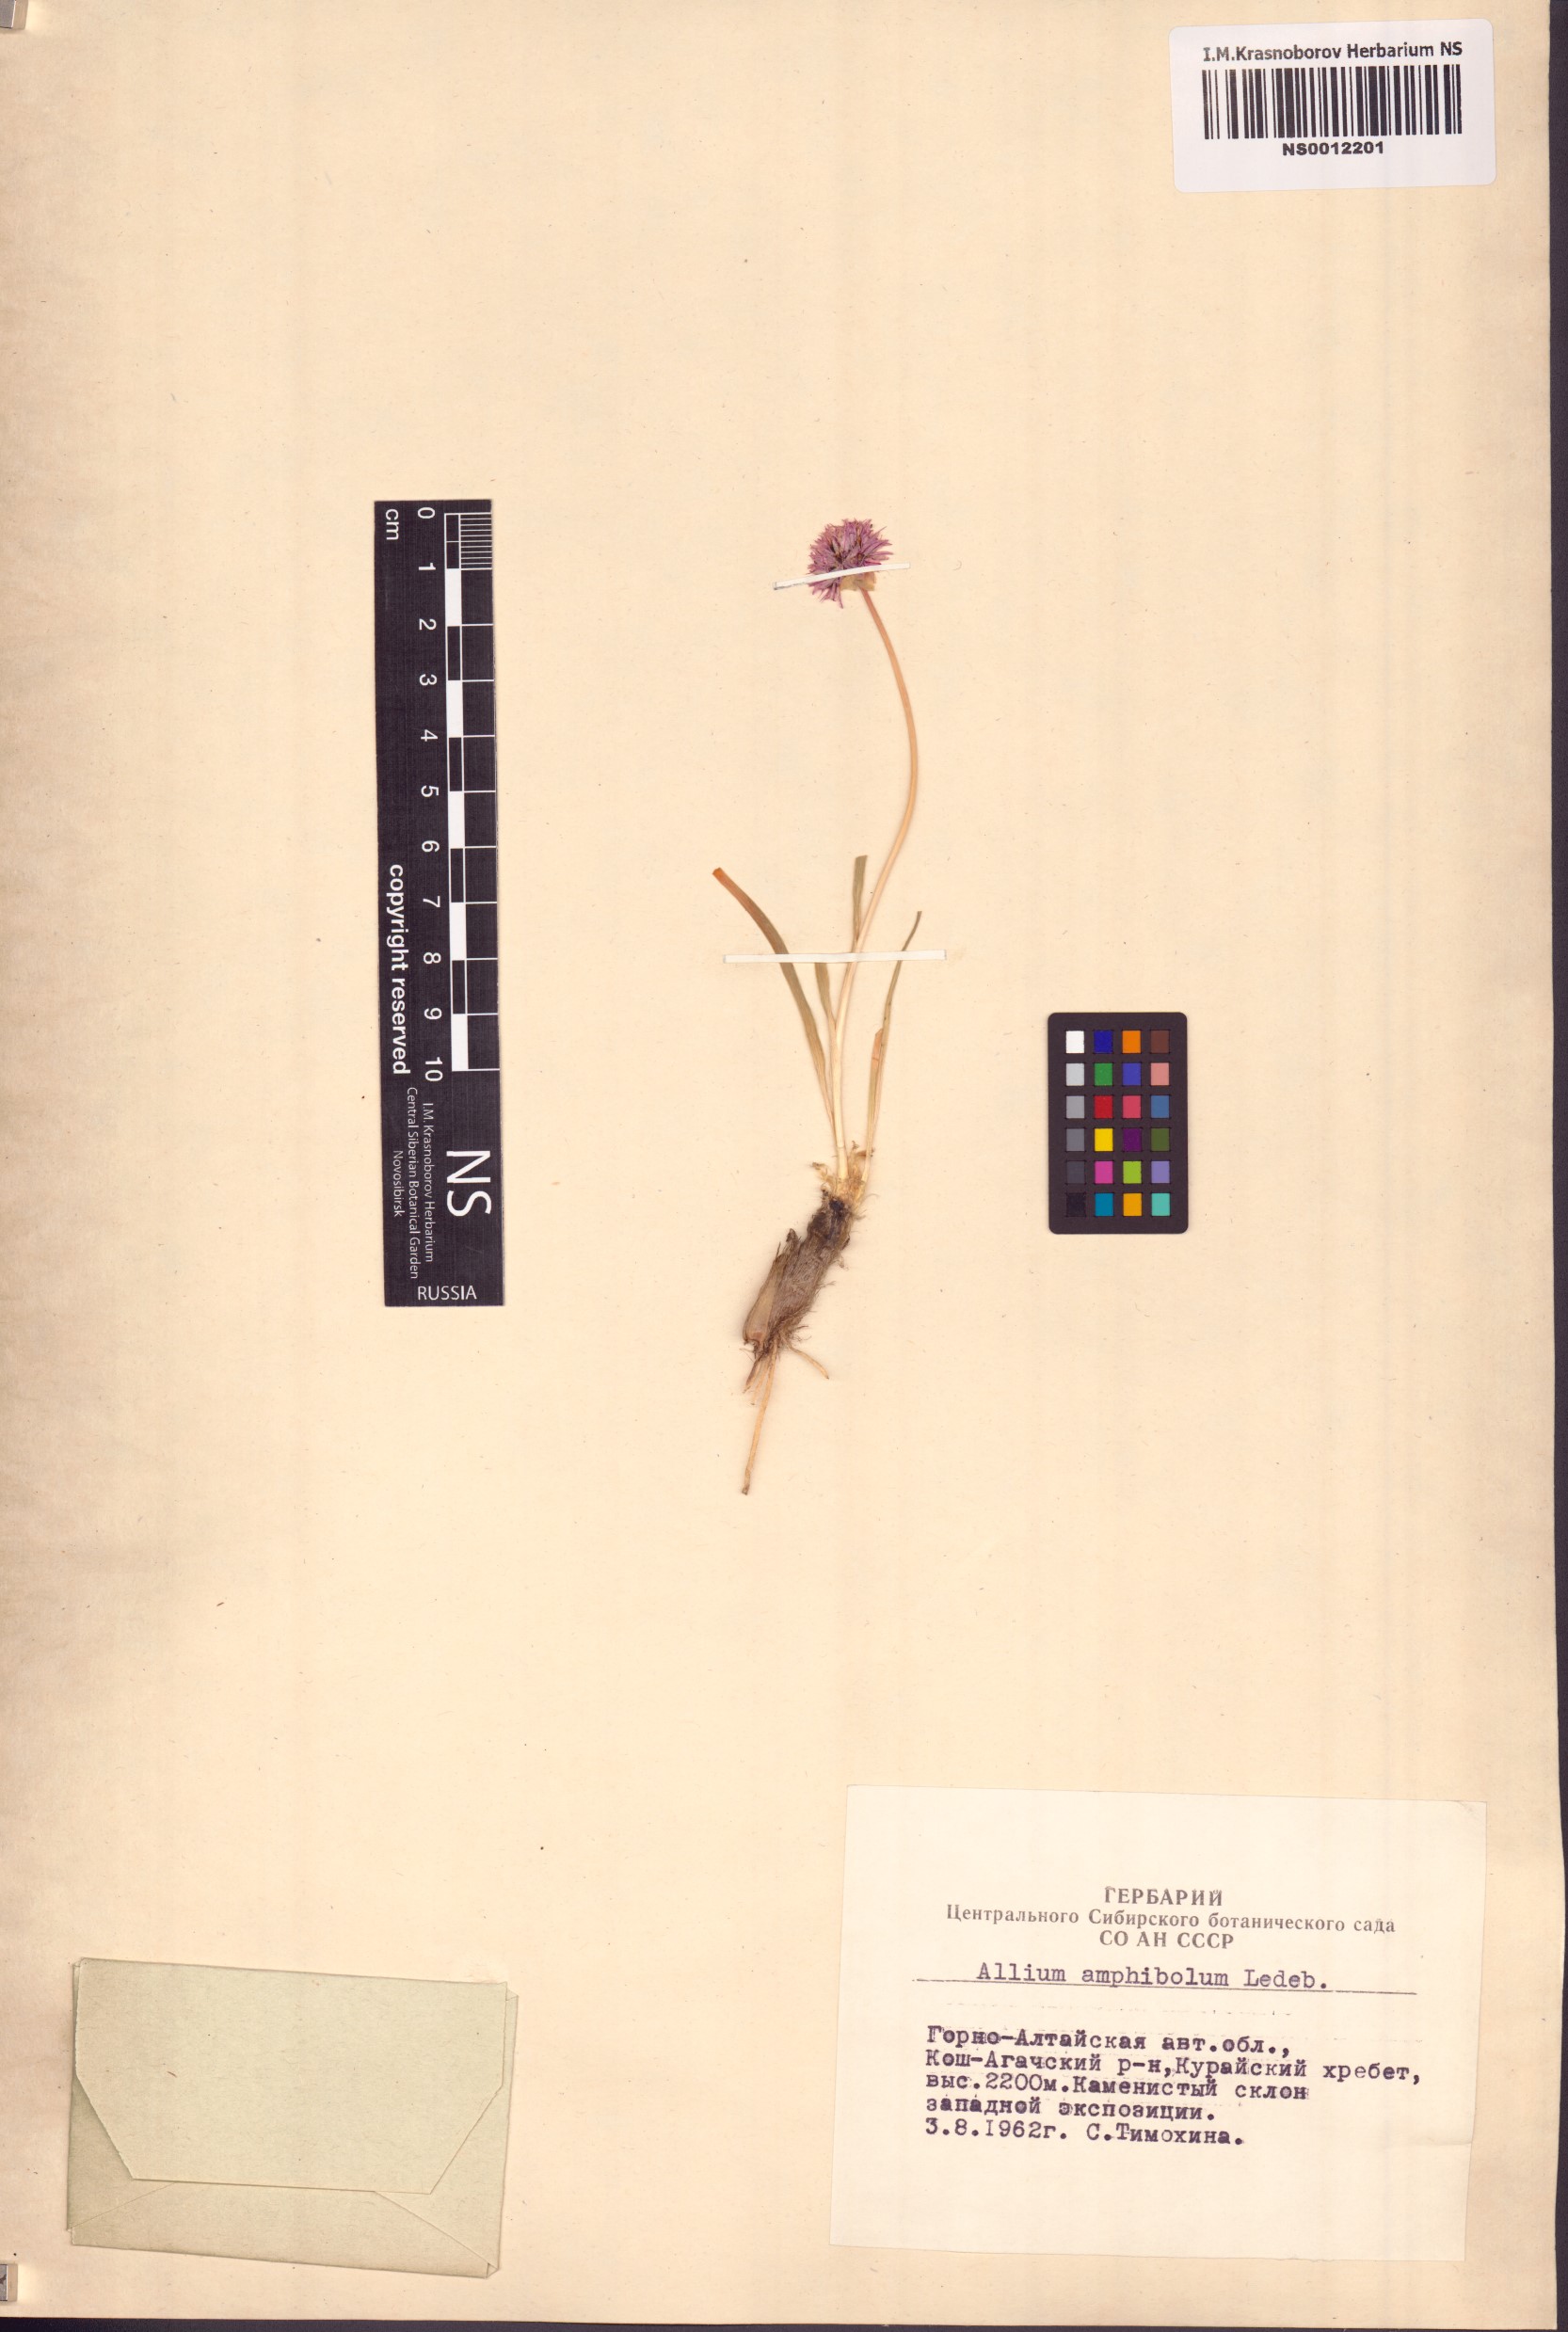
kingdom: Plantae
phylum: Tracheophyta
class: Liliopsida
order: Asparagales
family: Amaryllidaceae
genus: Allium
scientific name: Allium amphibolum
